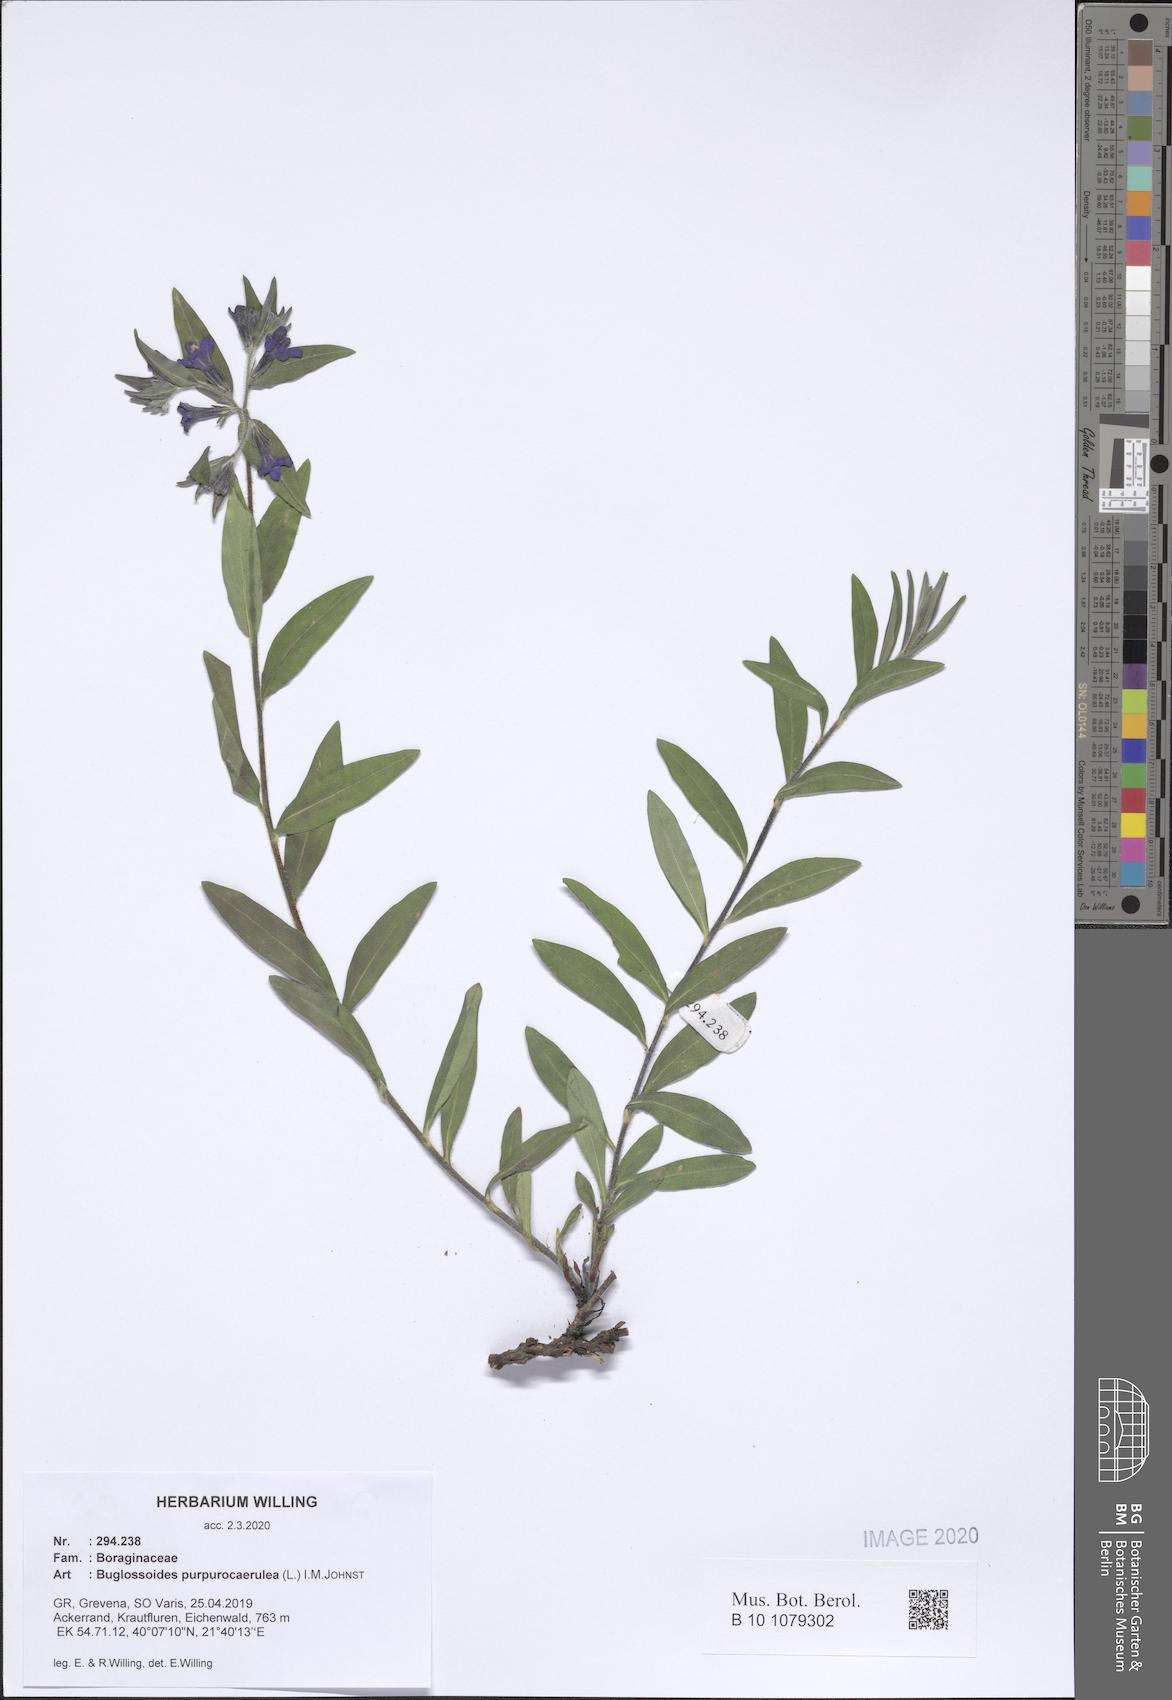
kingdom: Plantae
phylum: Tracheophyta
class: Magnoliopsida
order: Boraginales
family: Boraginaceae
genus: Aegonychon
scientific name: Aegonychon purpurocaeruleum
